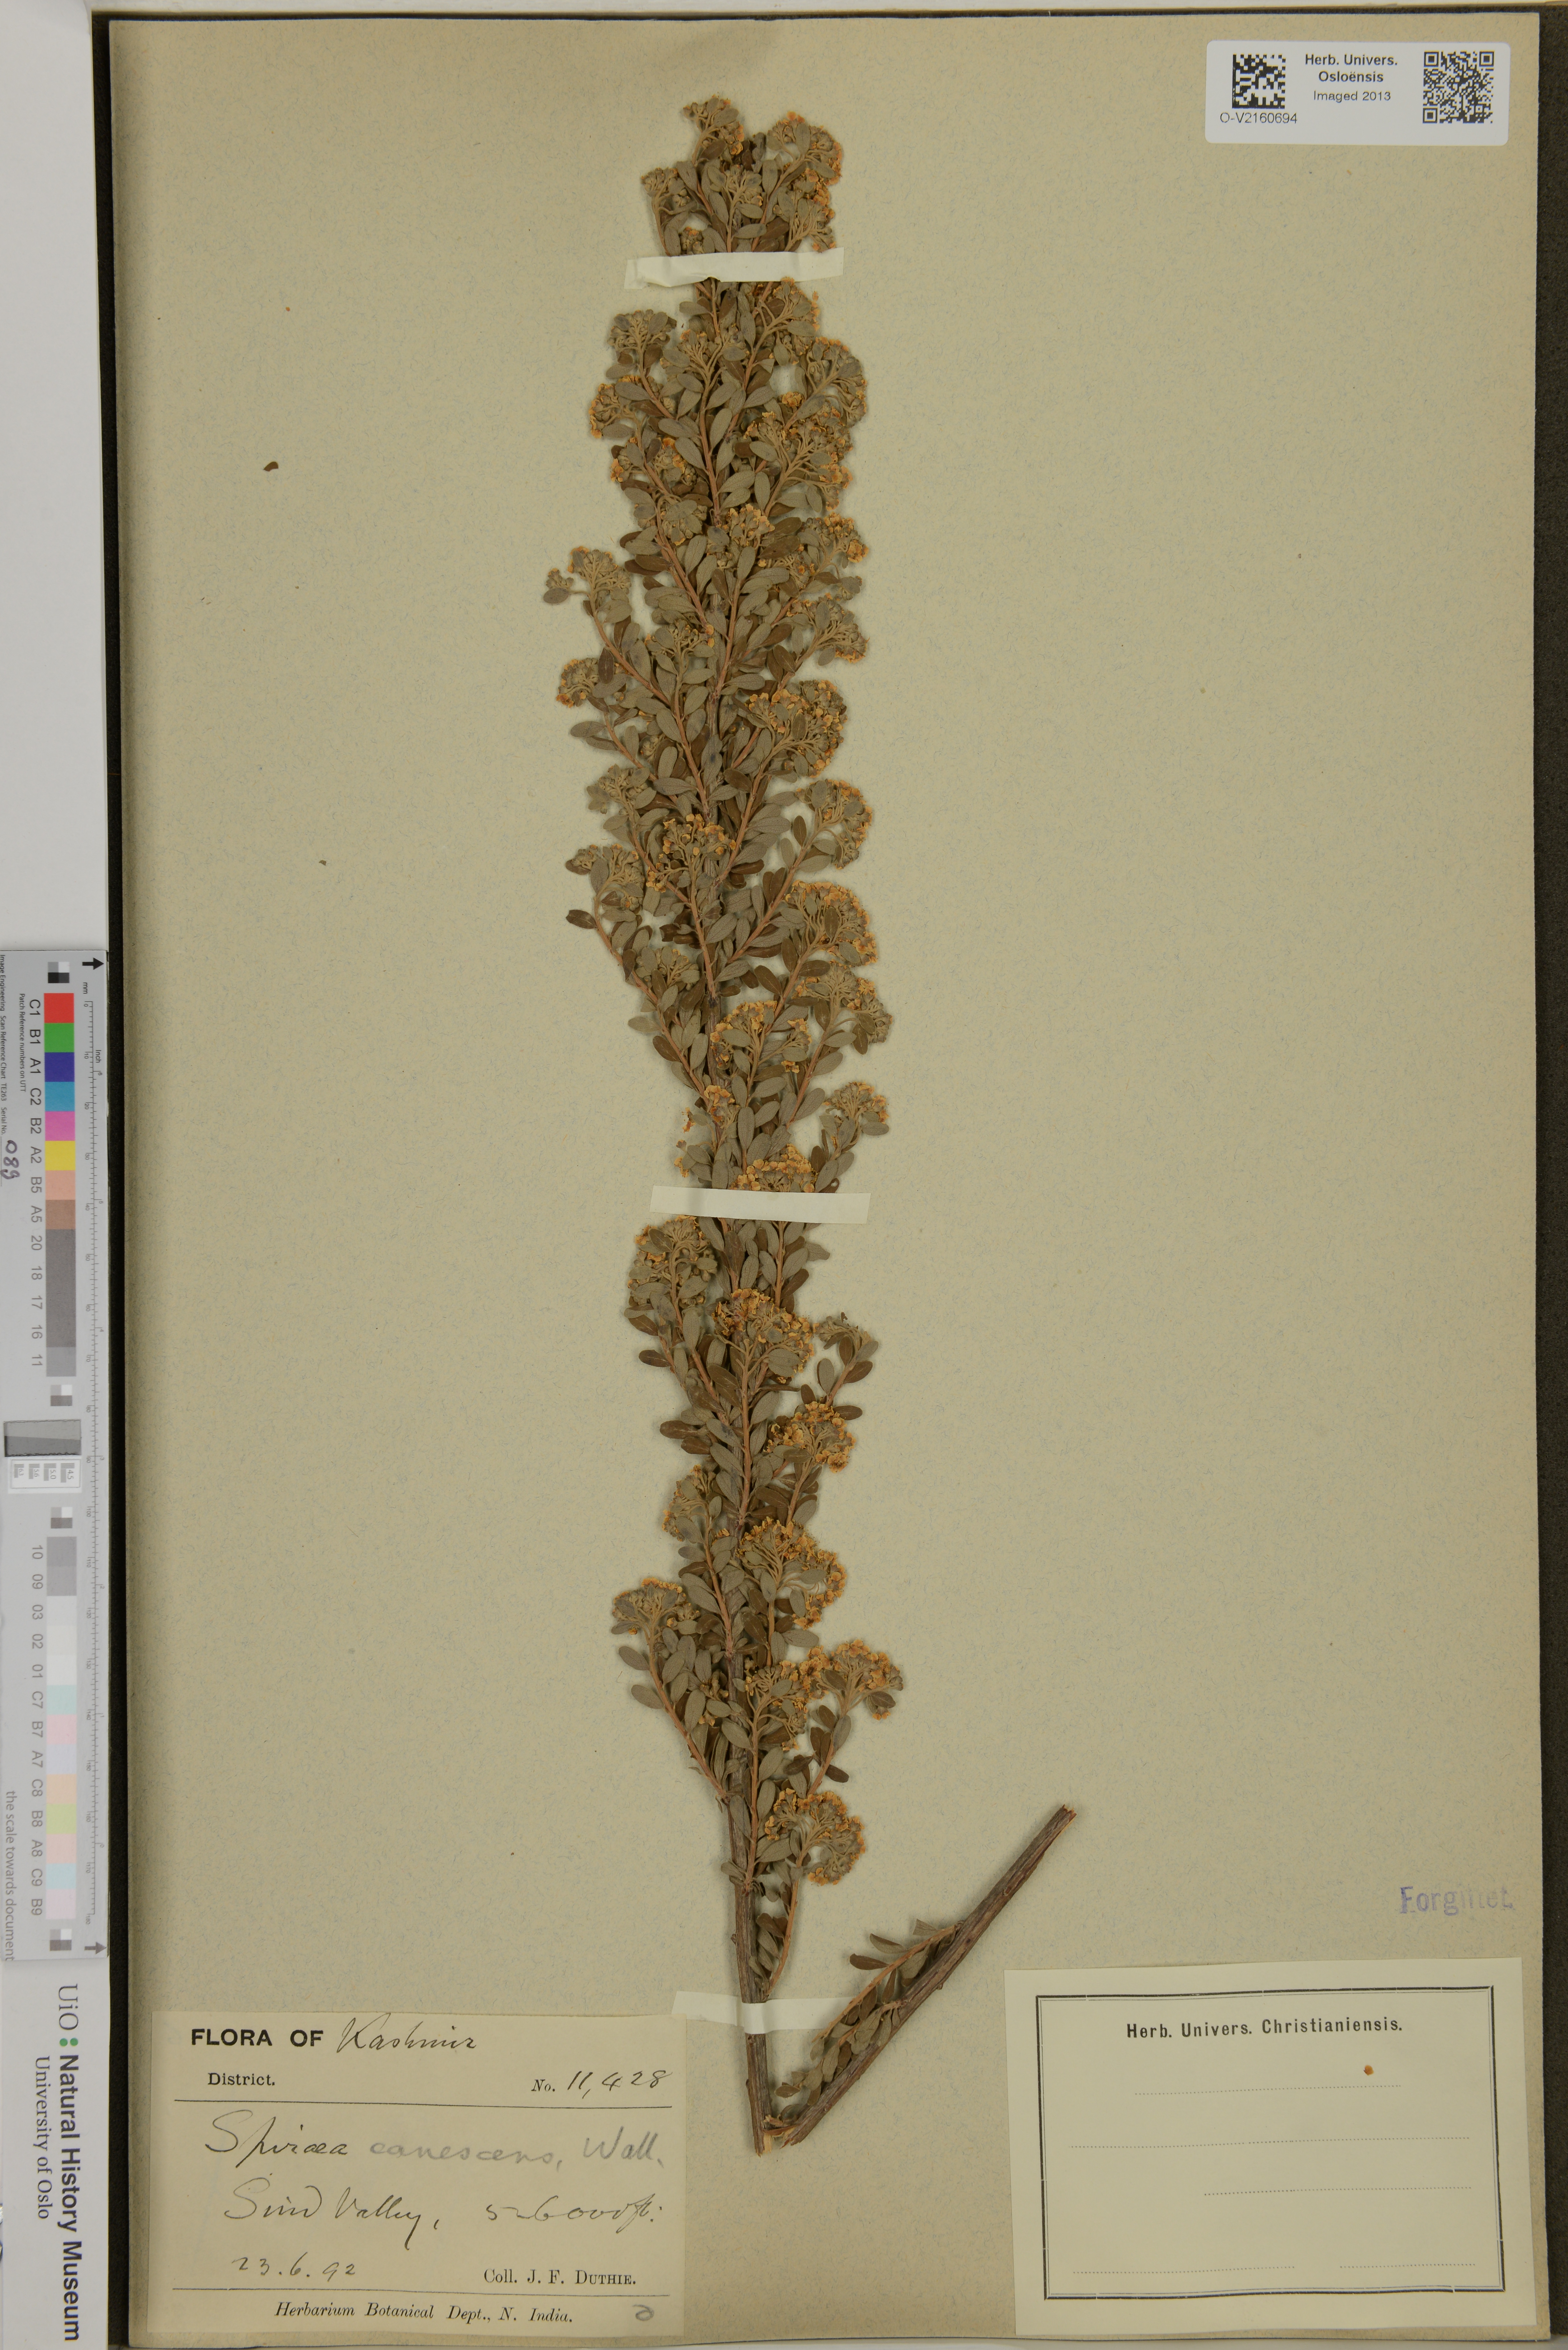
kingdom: Plantae
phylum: Tracheophyta
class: Magnoliopsida
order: Rosales
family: Rosaceae
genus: Spiraea
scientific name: Spiraea canescens
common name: Himalayan spiraea
